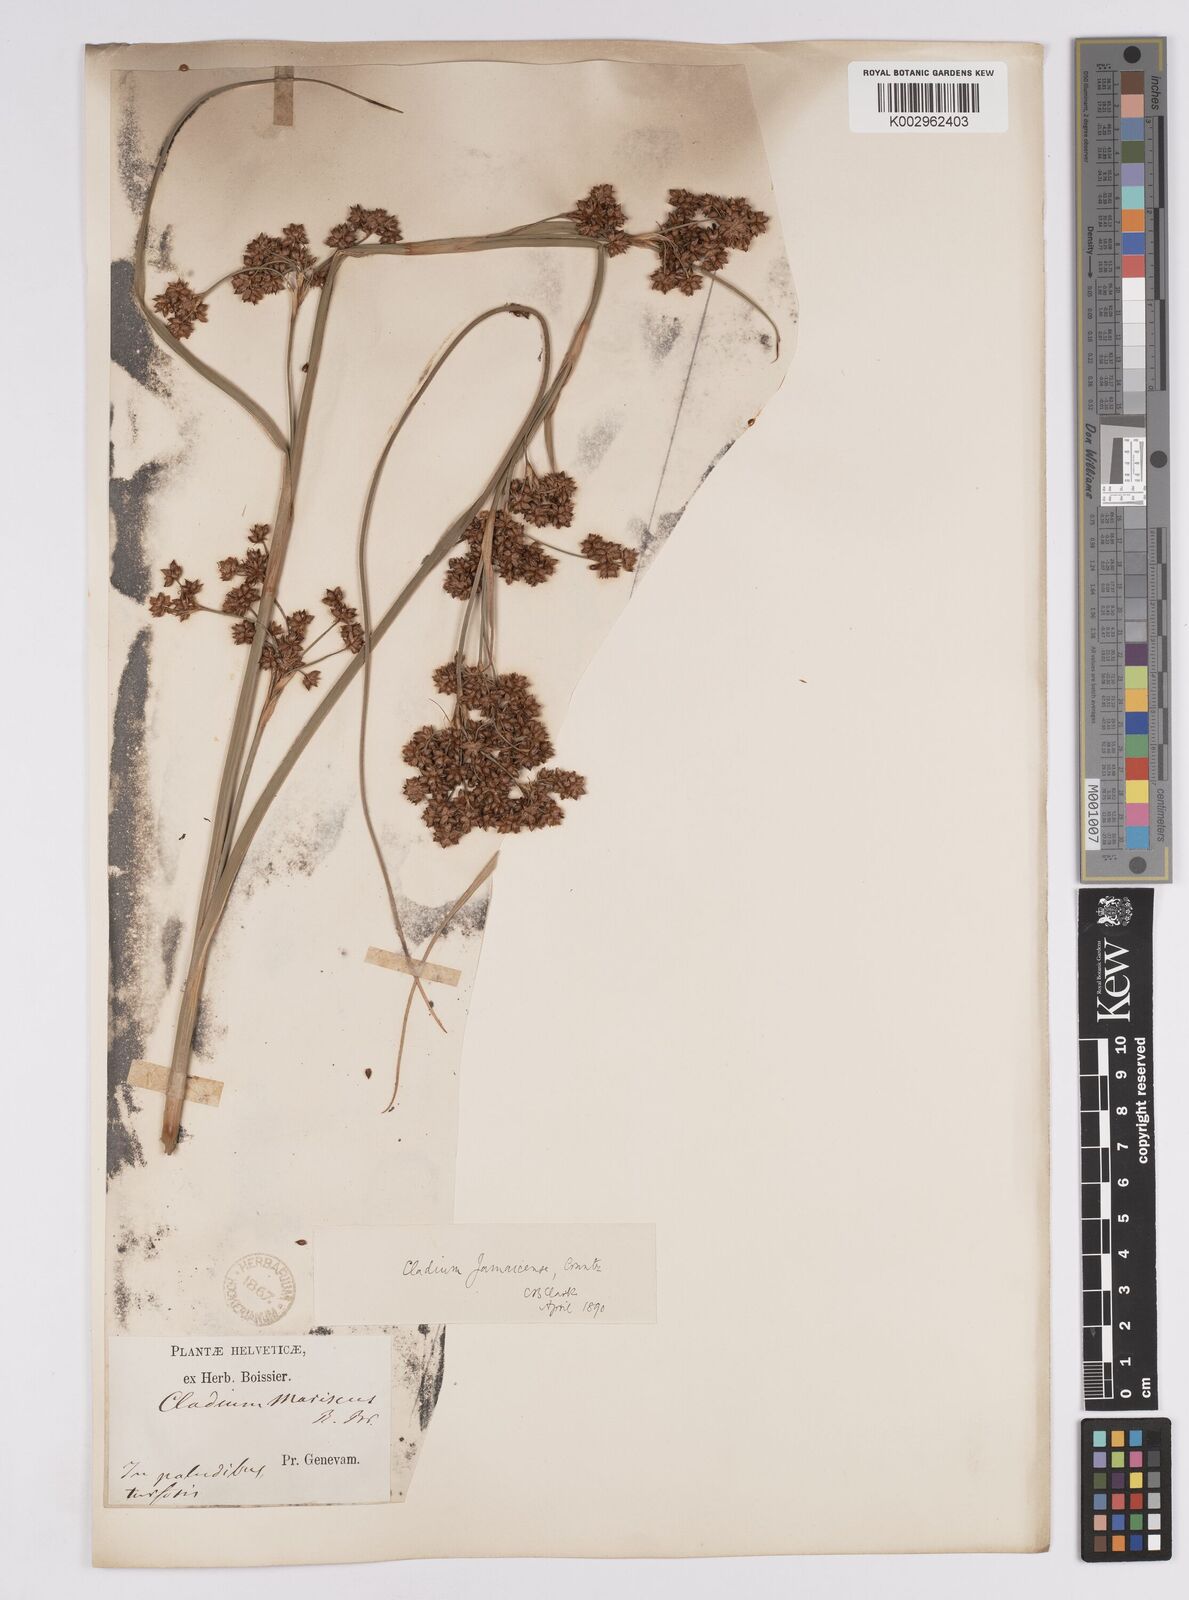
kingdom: Plantae
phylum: Tracheophyta
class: Liliopsida
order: Poales
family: Cyperaceae
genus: Cladium
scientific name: Cladium mariscus
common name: Great fen-sedge
